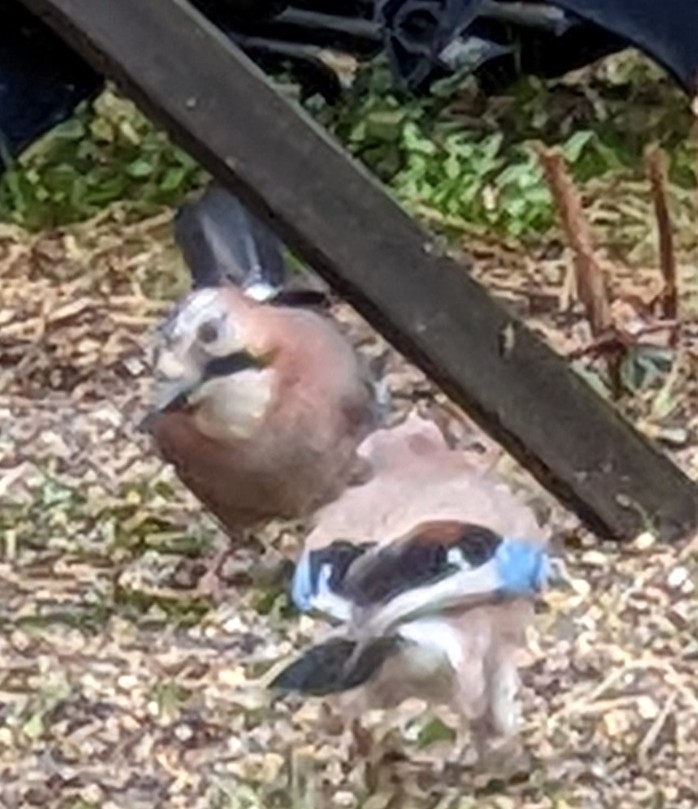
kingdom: Animalia
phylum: Chordata
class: Aves
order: Passeriformes
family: Corvidae
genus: Garrulus
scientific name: Garrulus glandarius
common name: Skovskade
